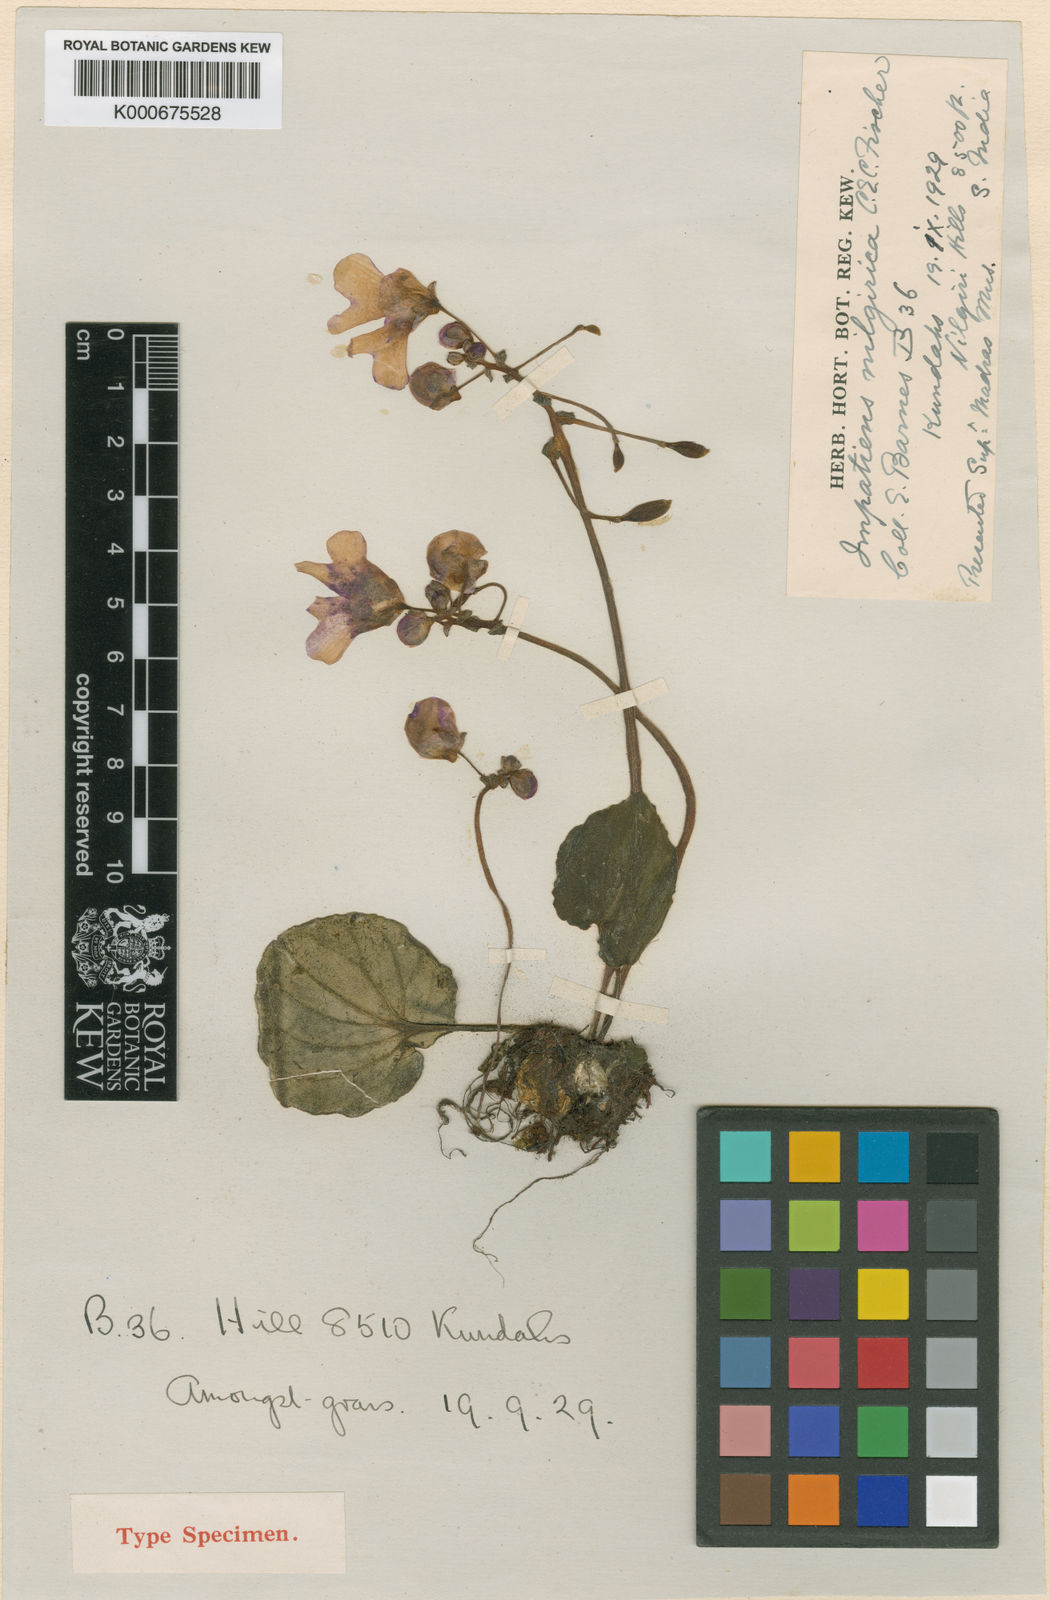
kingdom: Plantae
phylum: Tracheophyta
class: Magnoliopsida
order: Ericales
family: Balsaminaceae
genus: Impatiens
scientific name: Impatiens nilgirica
